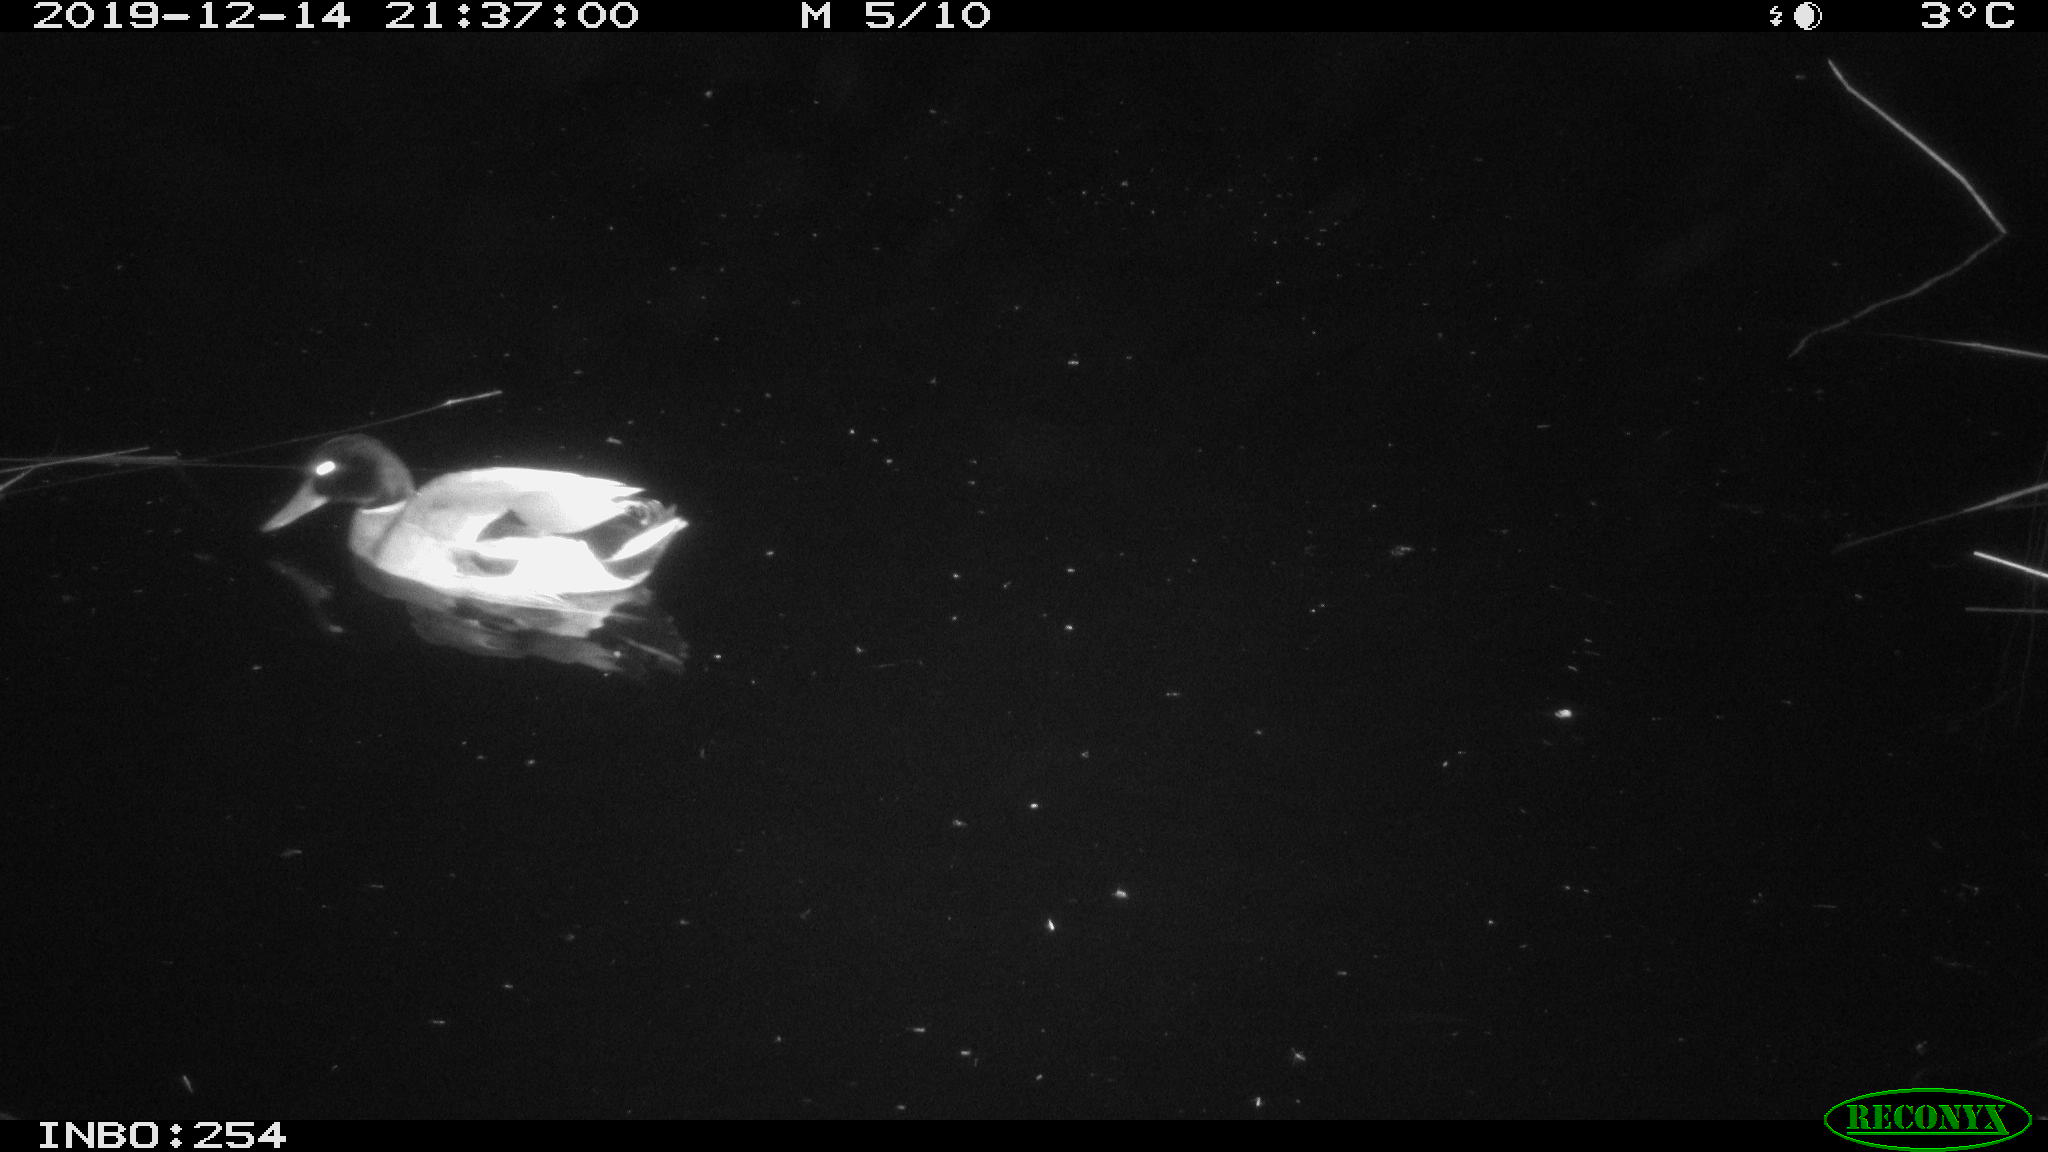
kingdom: Animalia
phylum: Chordata
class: Aves
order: Anseriformes
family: Anatidae
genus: Anas
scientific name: Anas platyrhynchos
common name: Mallard
